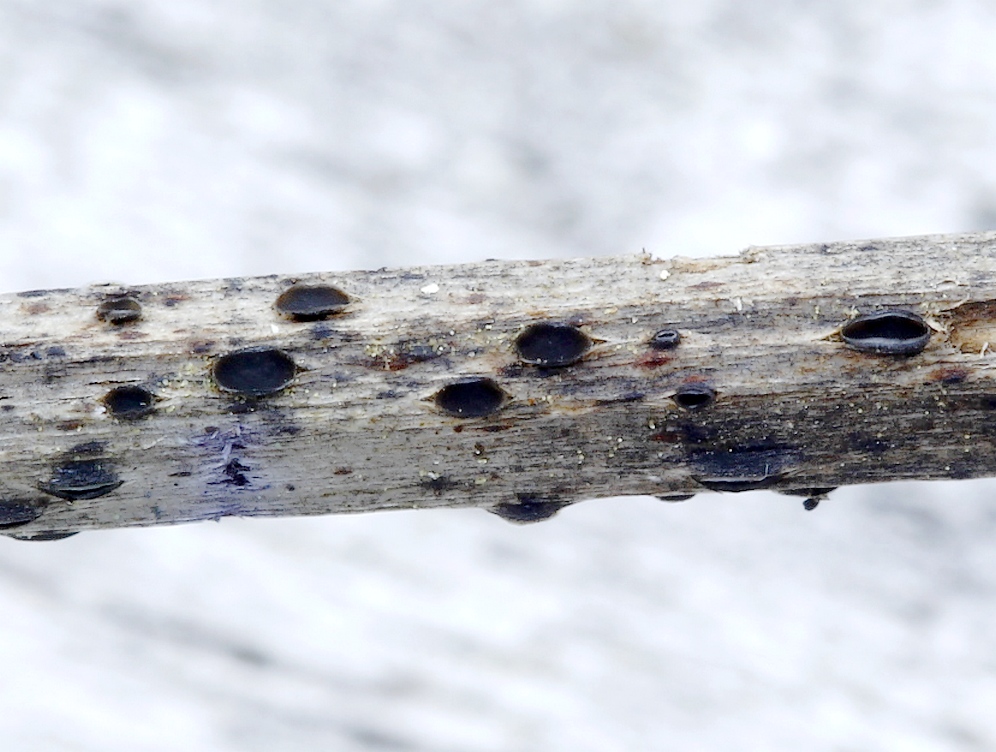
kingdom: Fungi
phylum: Ascomycota
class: Leotiomycetes
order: Helotiales
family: Ploettnerulaceae
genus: Pyrenopeziza
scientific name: Pyrenopeziza petiolaris
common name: ahorn-kerneskive
